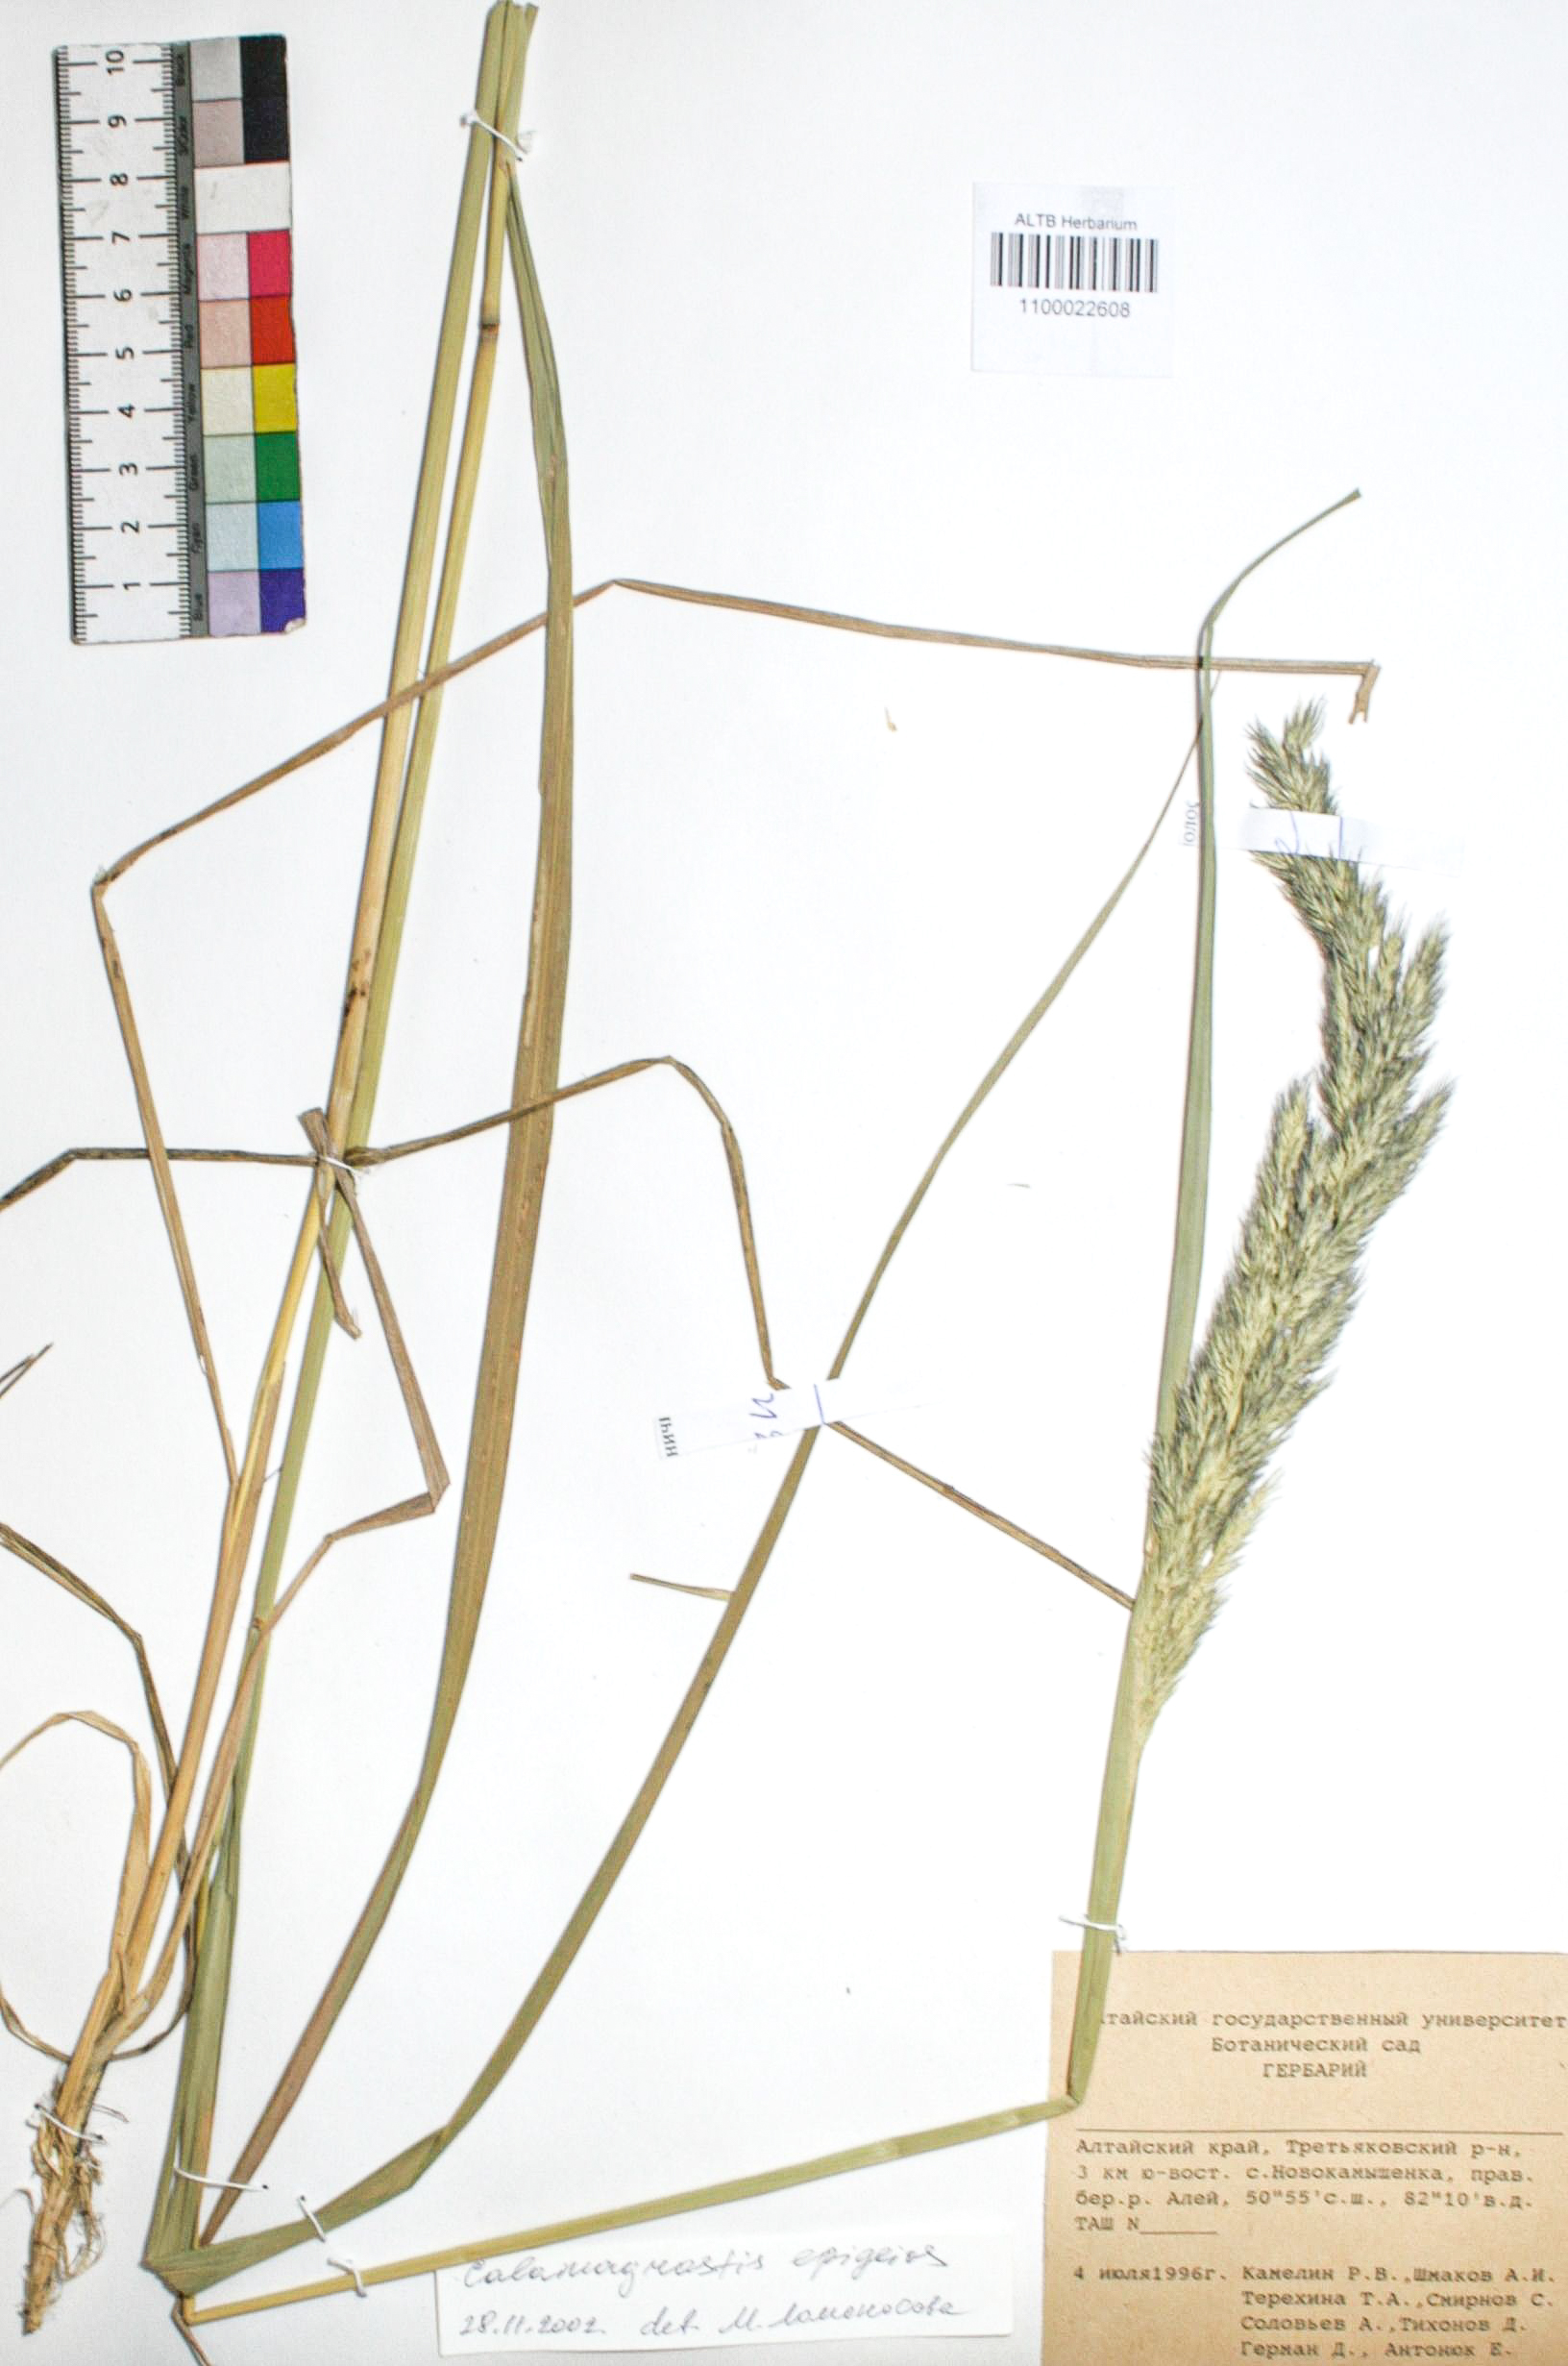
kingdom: Plantae
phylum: Tracheophyta
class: Liliopsida
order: Poales
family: Poaceae
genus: Calamagrostis
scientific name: Calamagrostis epigejos
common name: Wood small-reed
